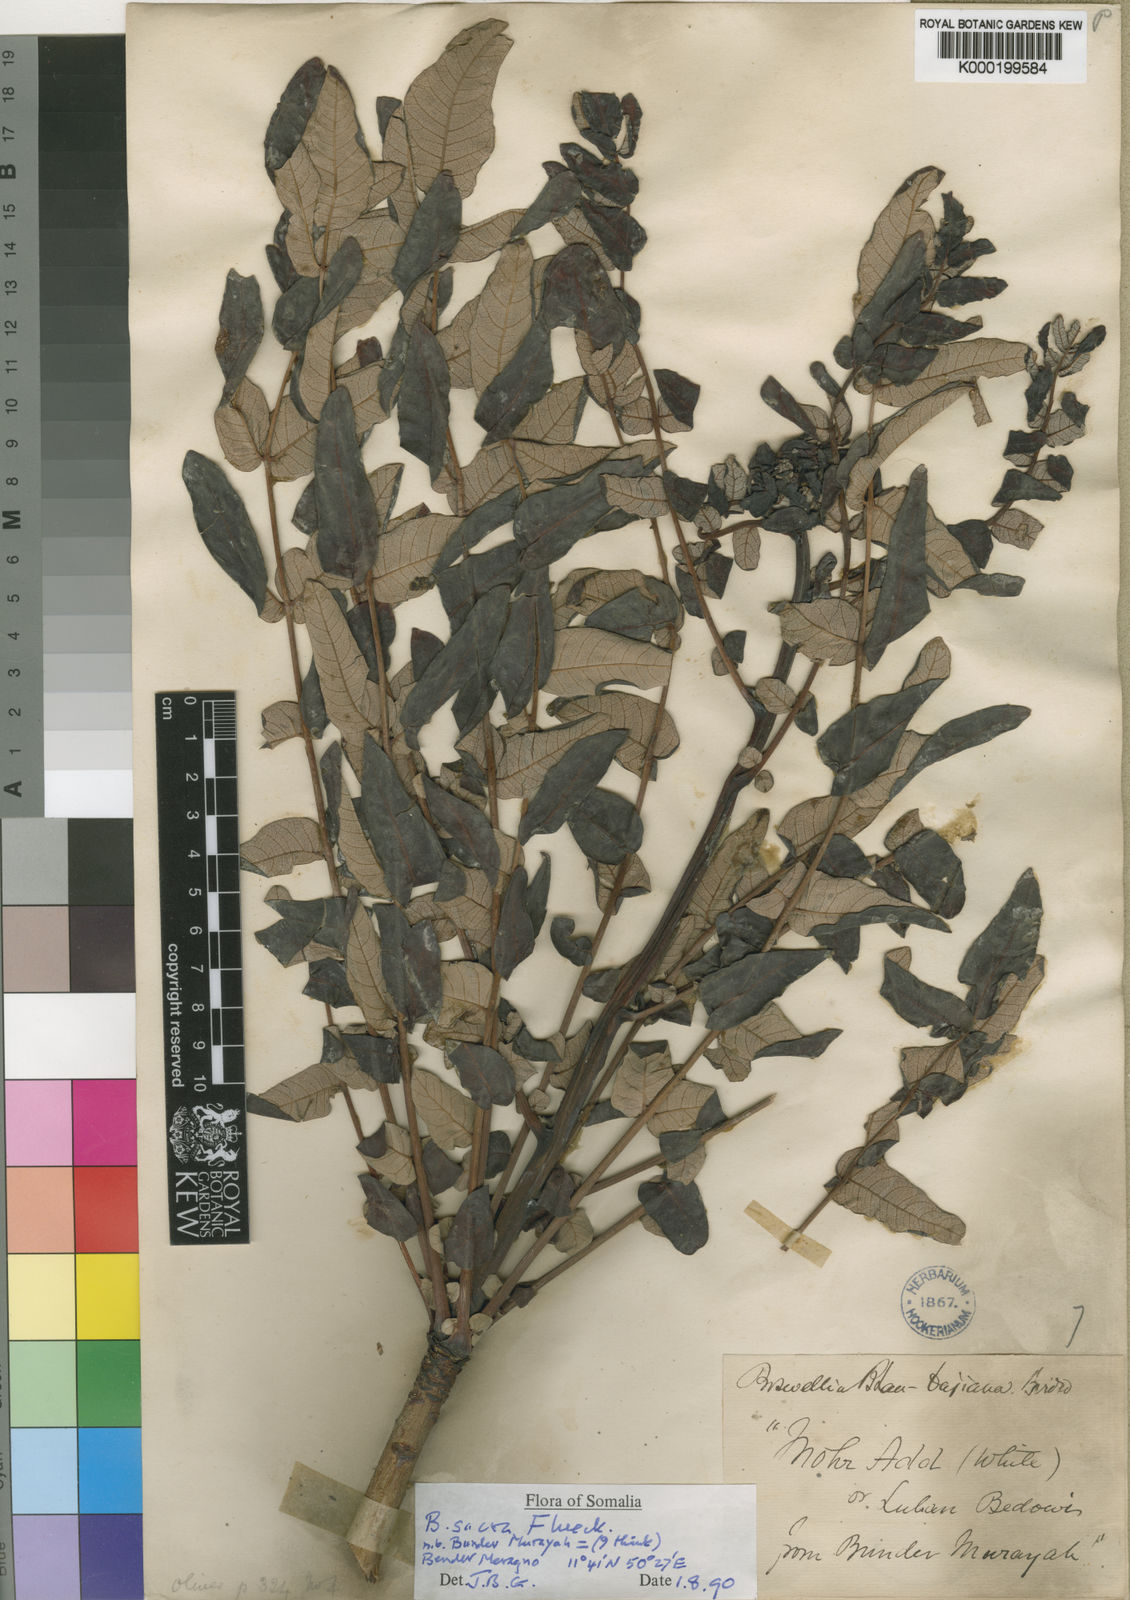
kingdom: Plantae
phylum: Tracheophyta
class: Magnoliopsida
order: Sapindales
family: Burseraceae
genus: Boswellia
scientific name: Boswellia sacra
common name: Olibanum-tree
